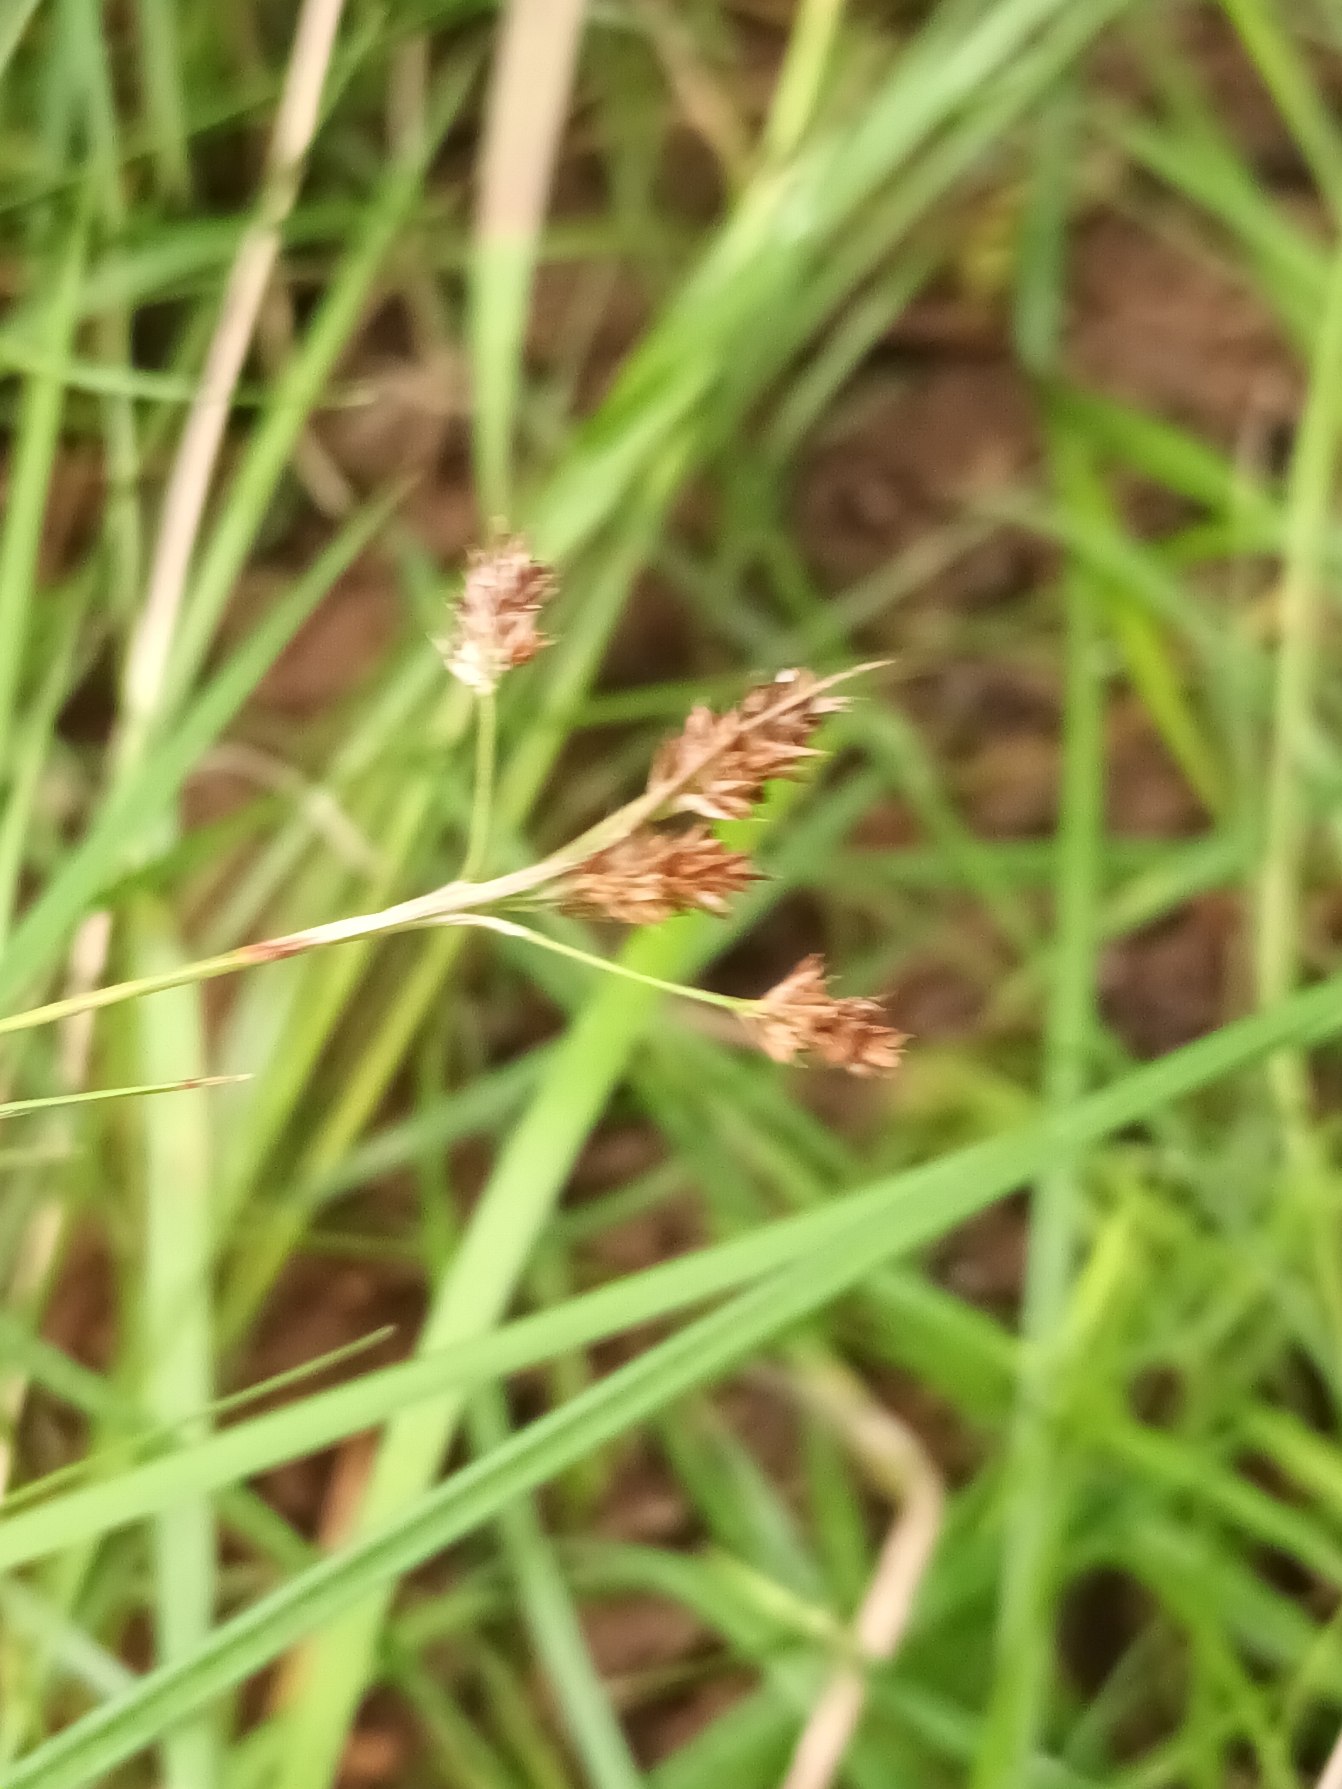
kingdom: Plantae
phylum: Tracheophyta
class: Liliopsida
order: Poales
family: Juncaceae
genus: Luzula
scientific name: Luzula multiflora
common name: Mangeblomstret frytle
